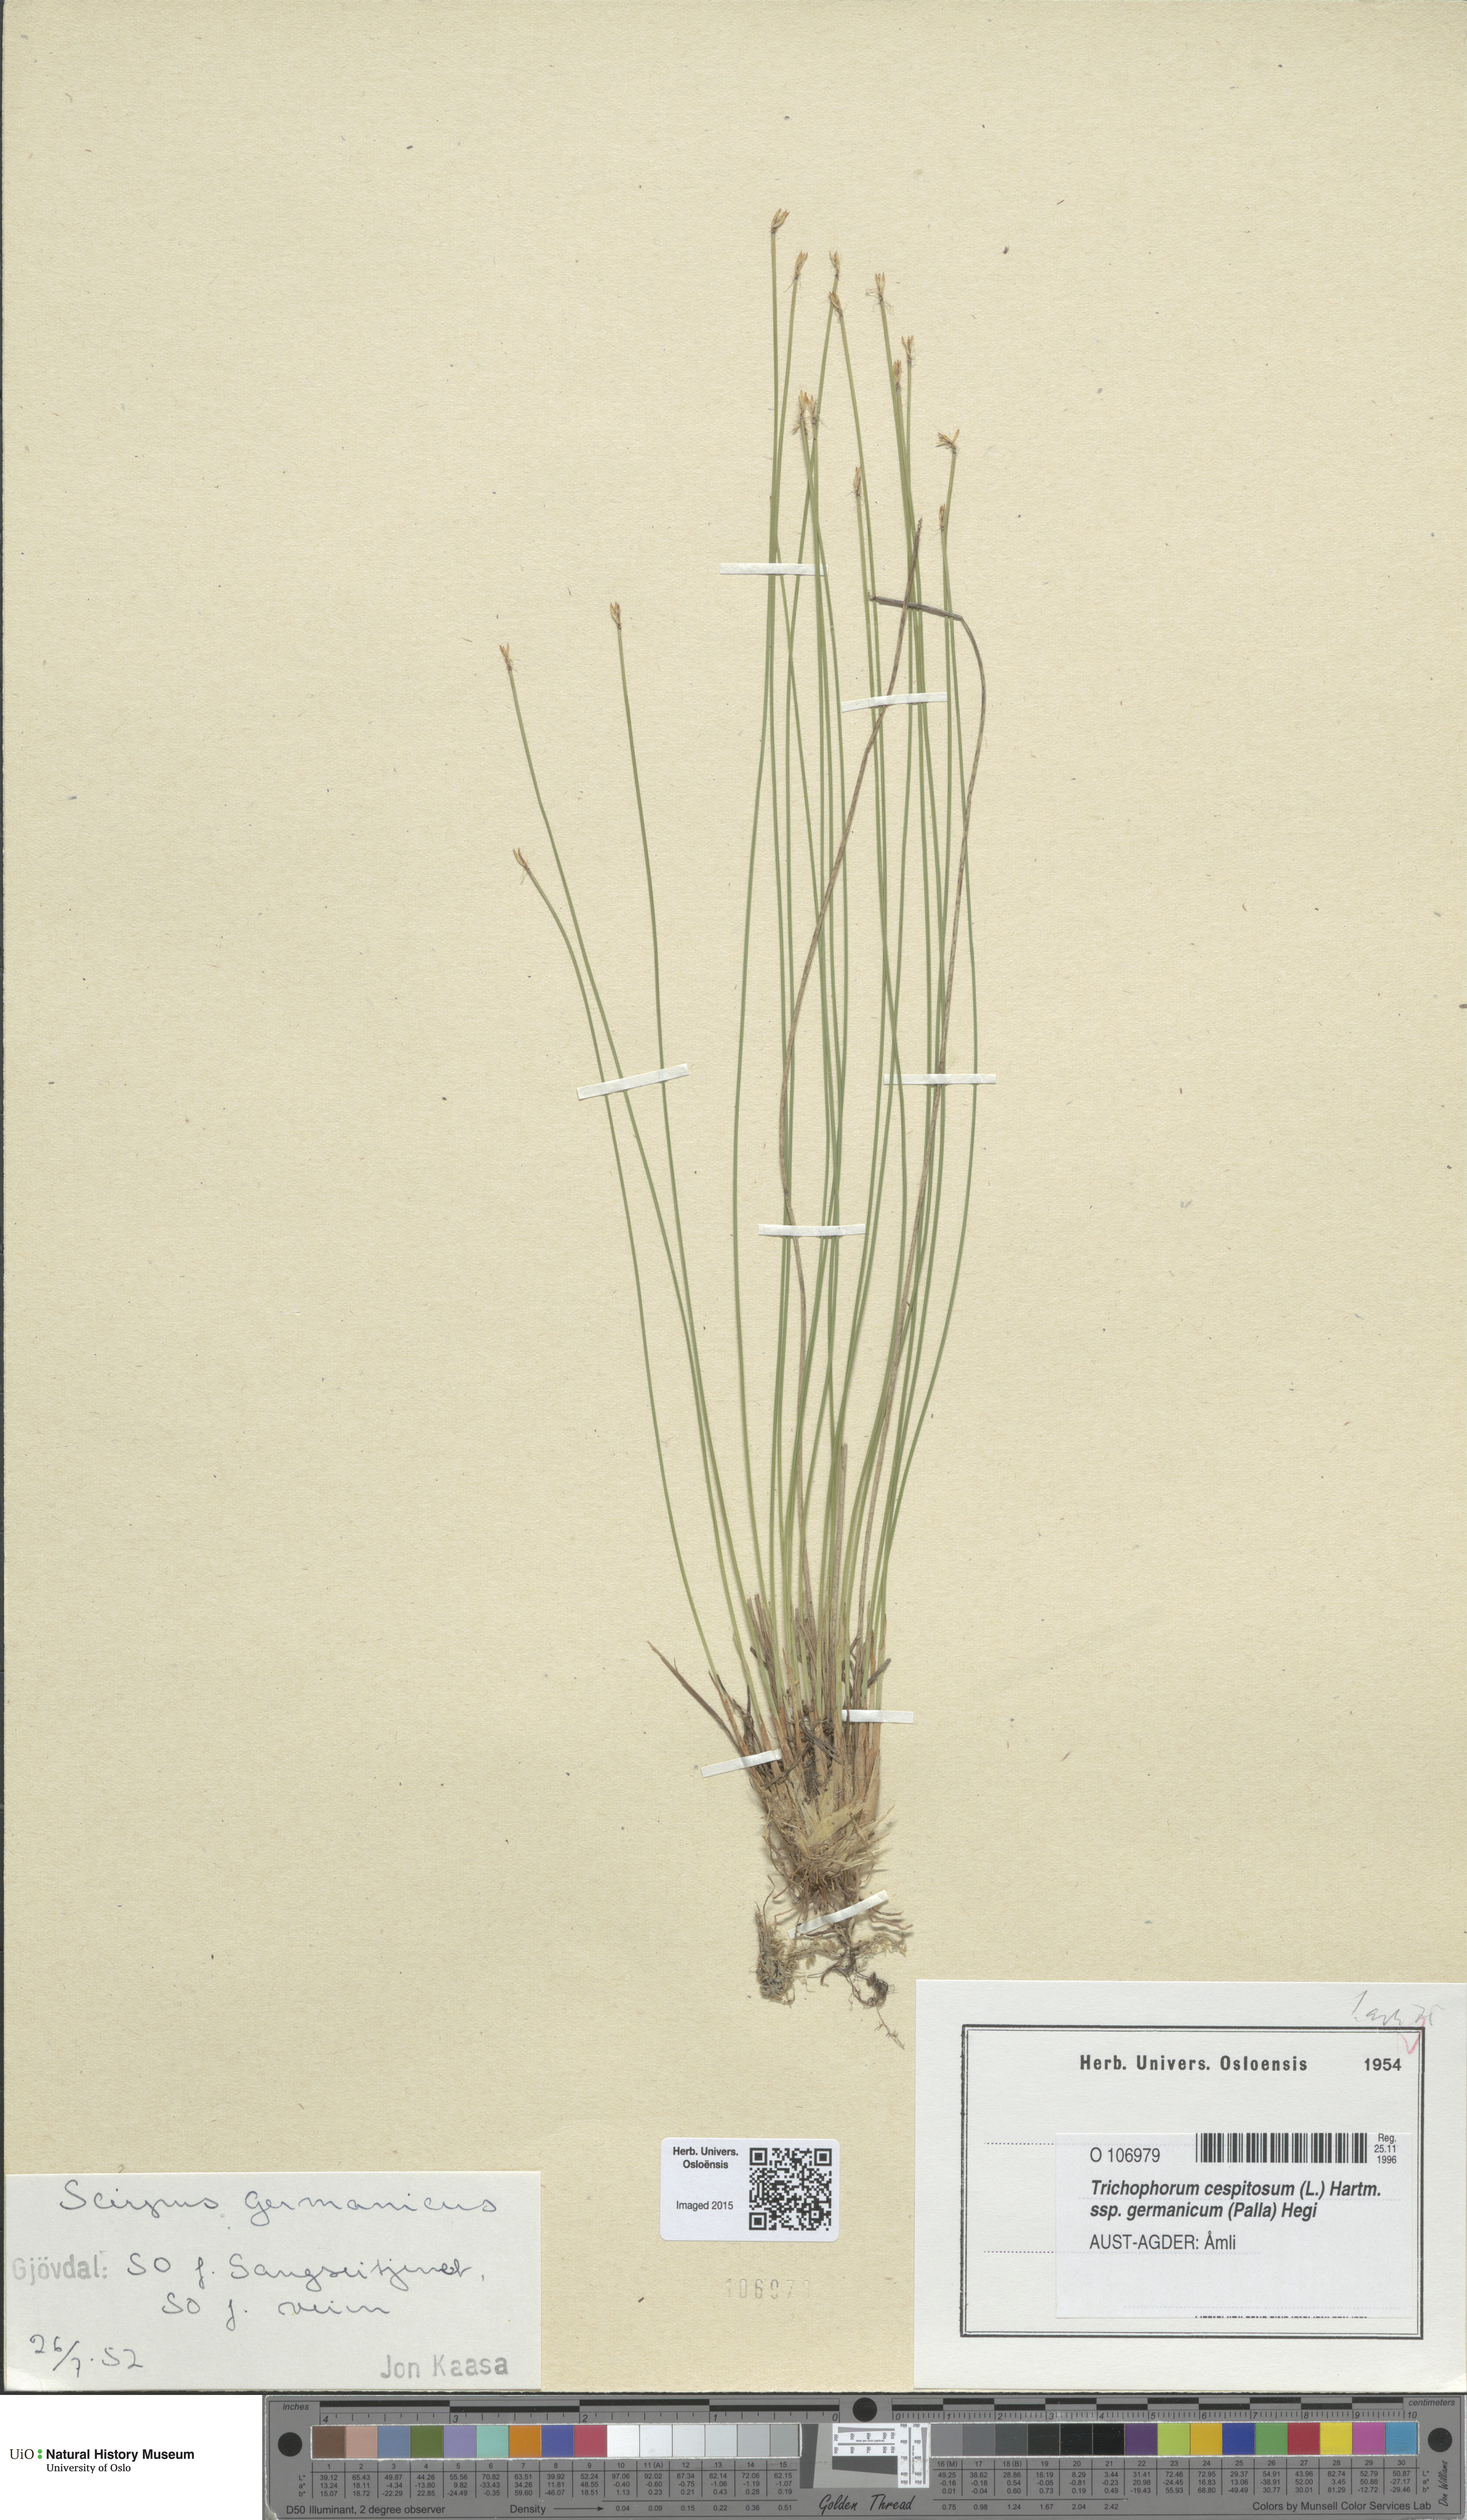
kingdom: Plantae
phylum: Tracheophyta
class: Liliopsida
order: Poales
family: Cyperaceae
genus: Trichophorum
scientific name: Trichophorum cespitosum
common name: Cespitose bulrush
